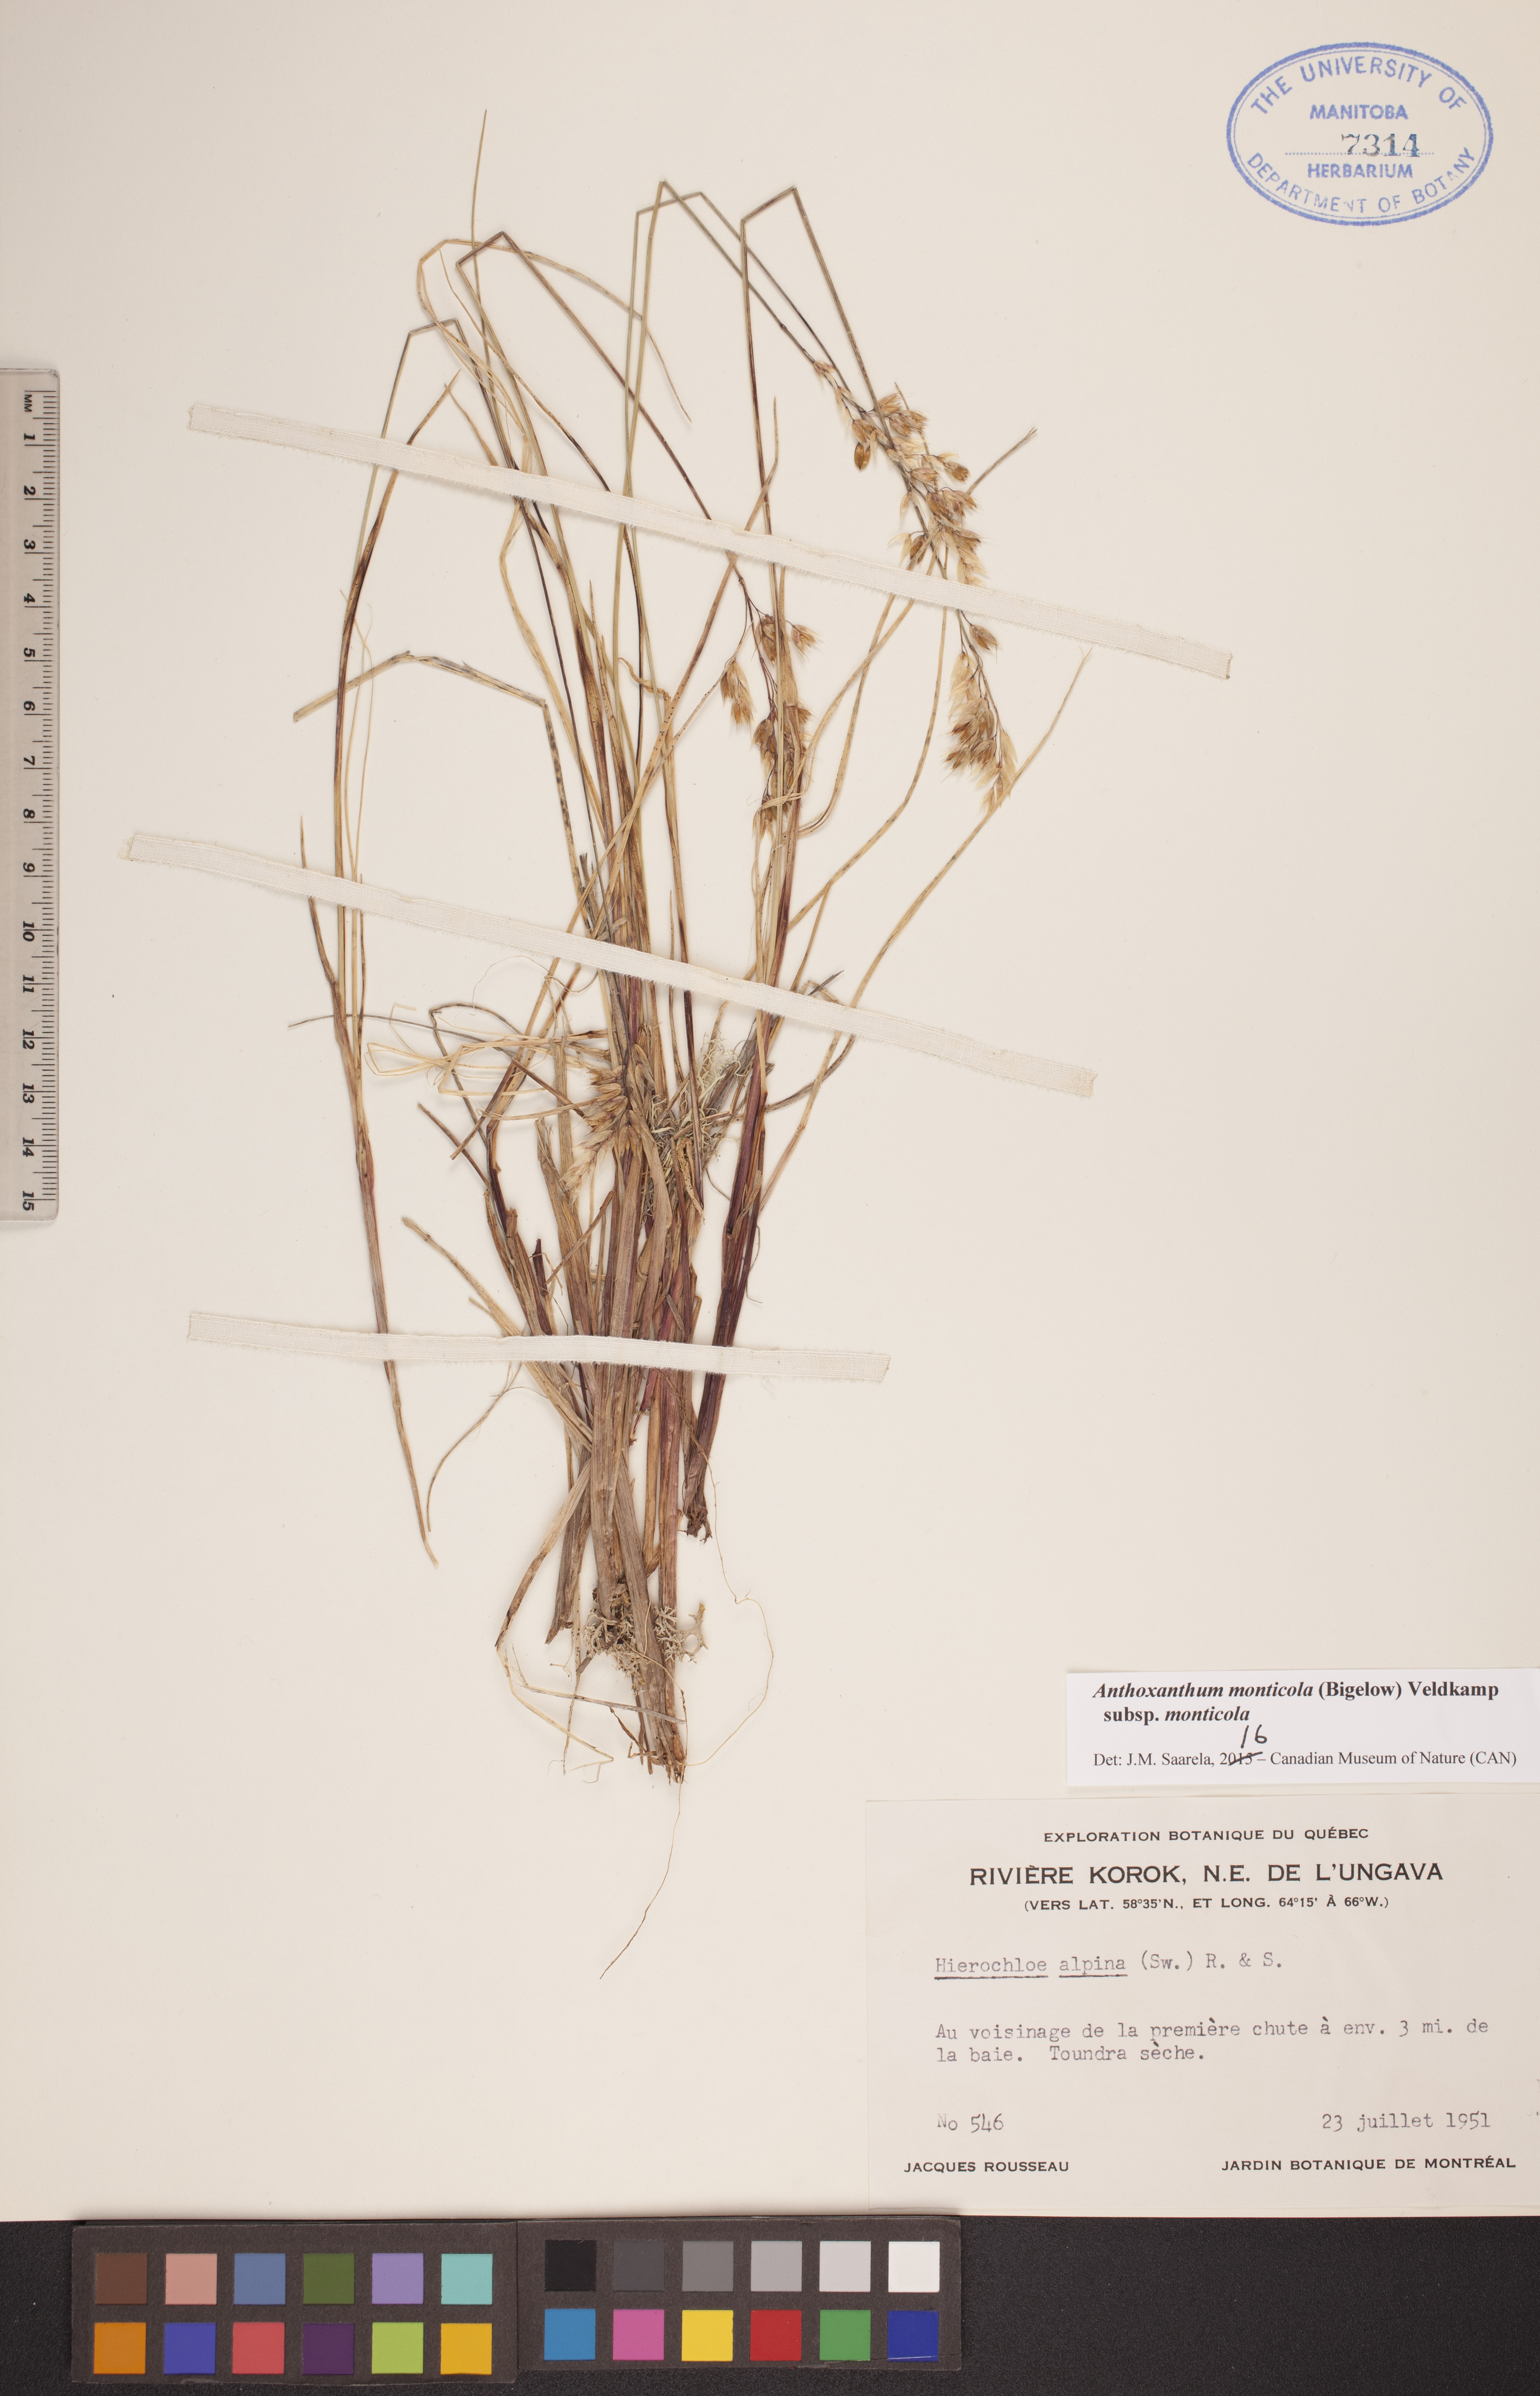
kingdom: Plantae
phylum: Tracheophyta
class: Liliopsida
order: Poales
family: Poaceae
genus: Anthoxanthum
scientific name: Anthoxanthum monticola
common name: Alpine sweetgrass
